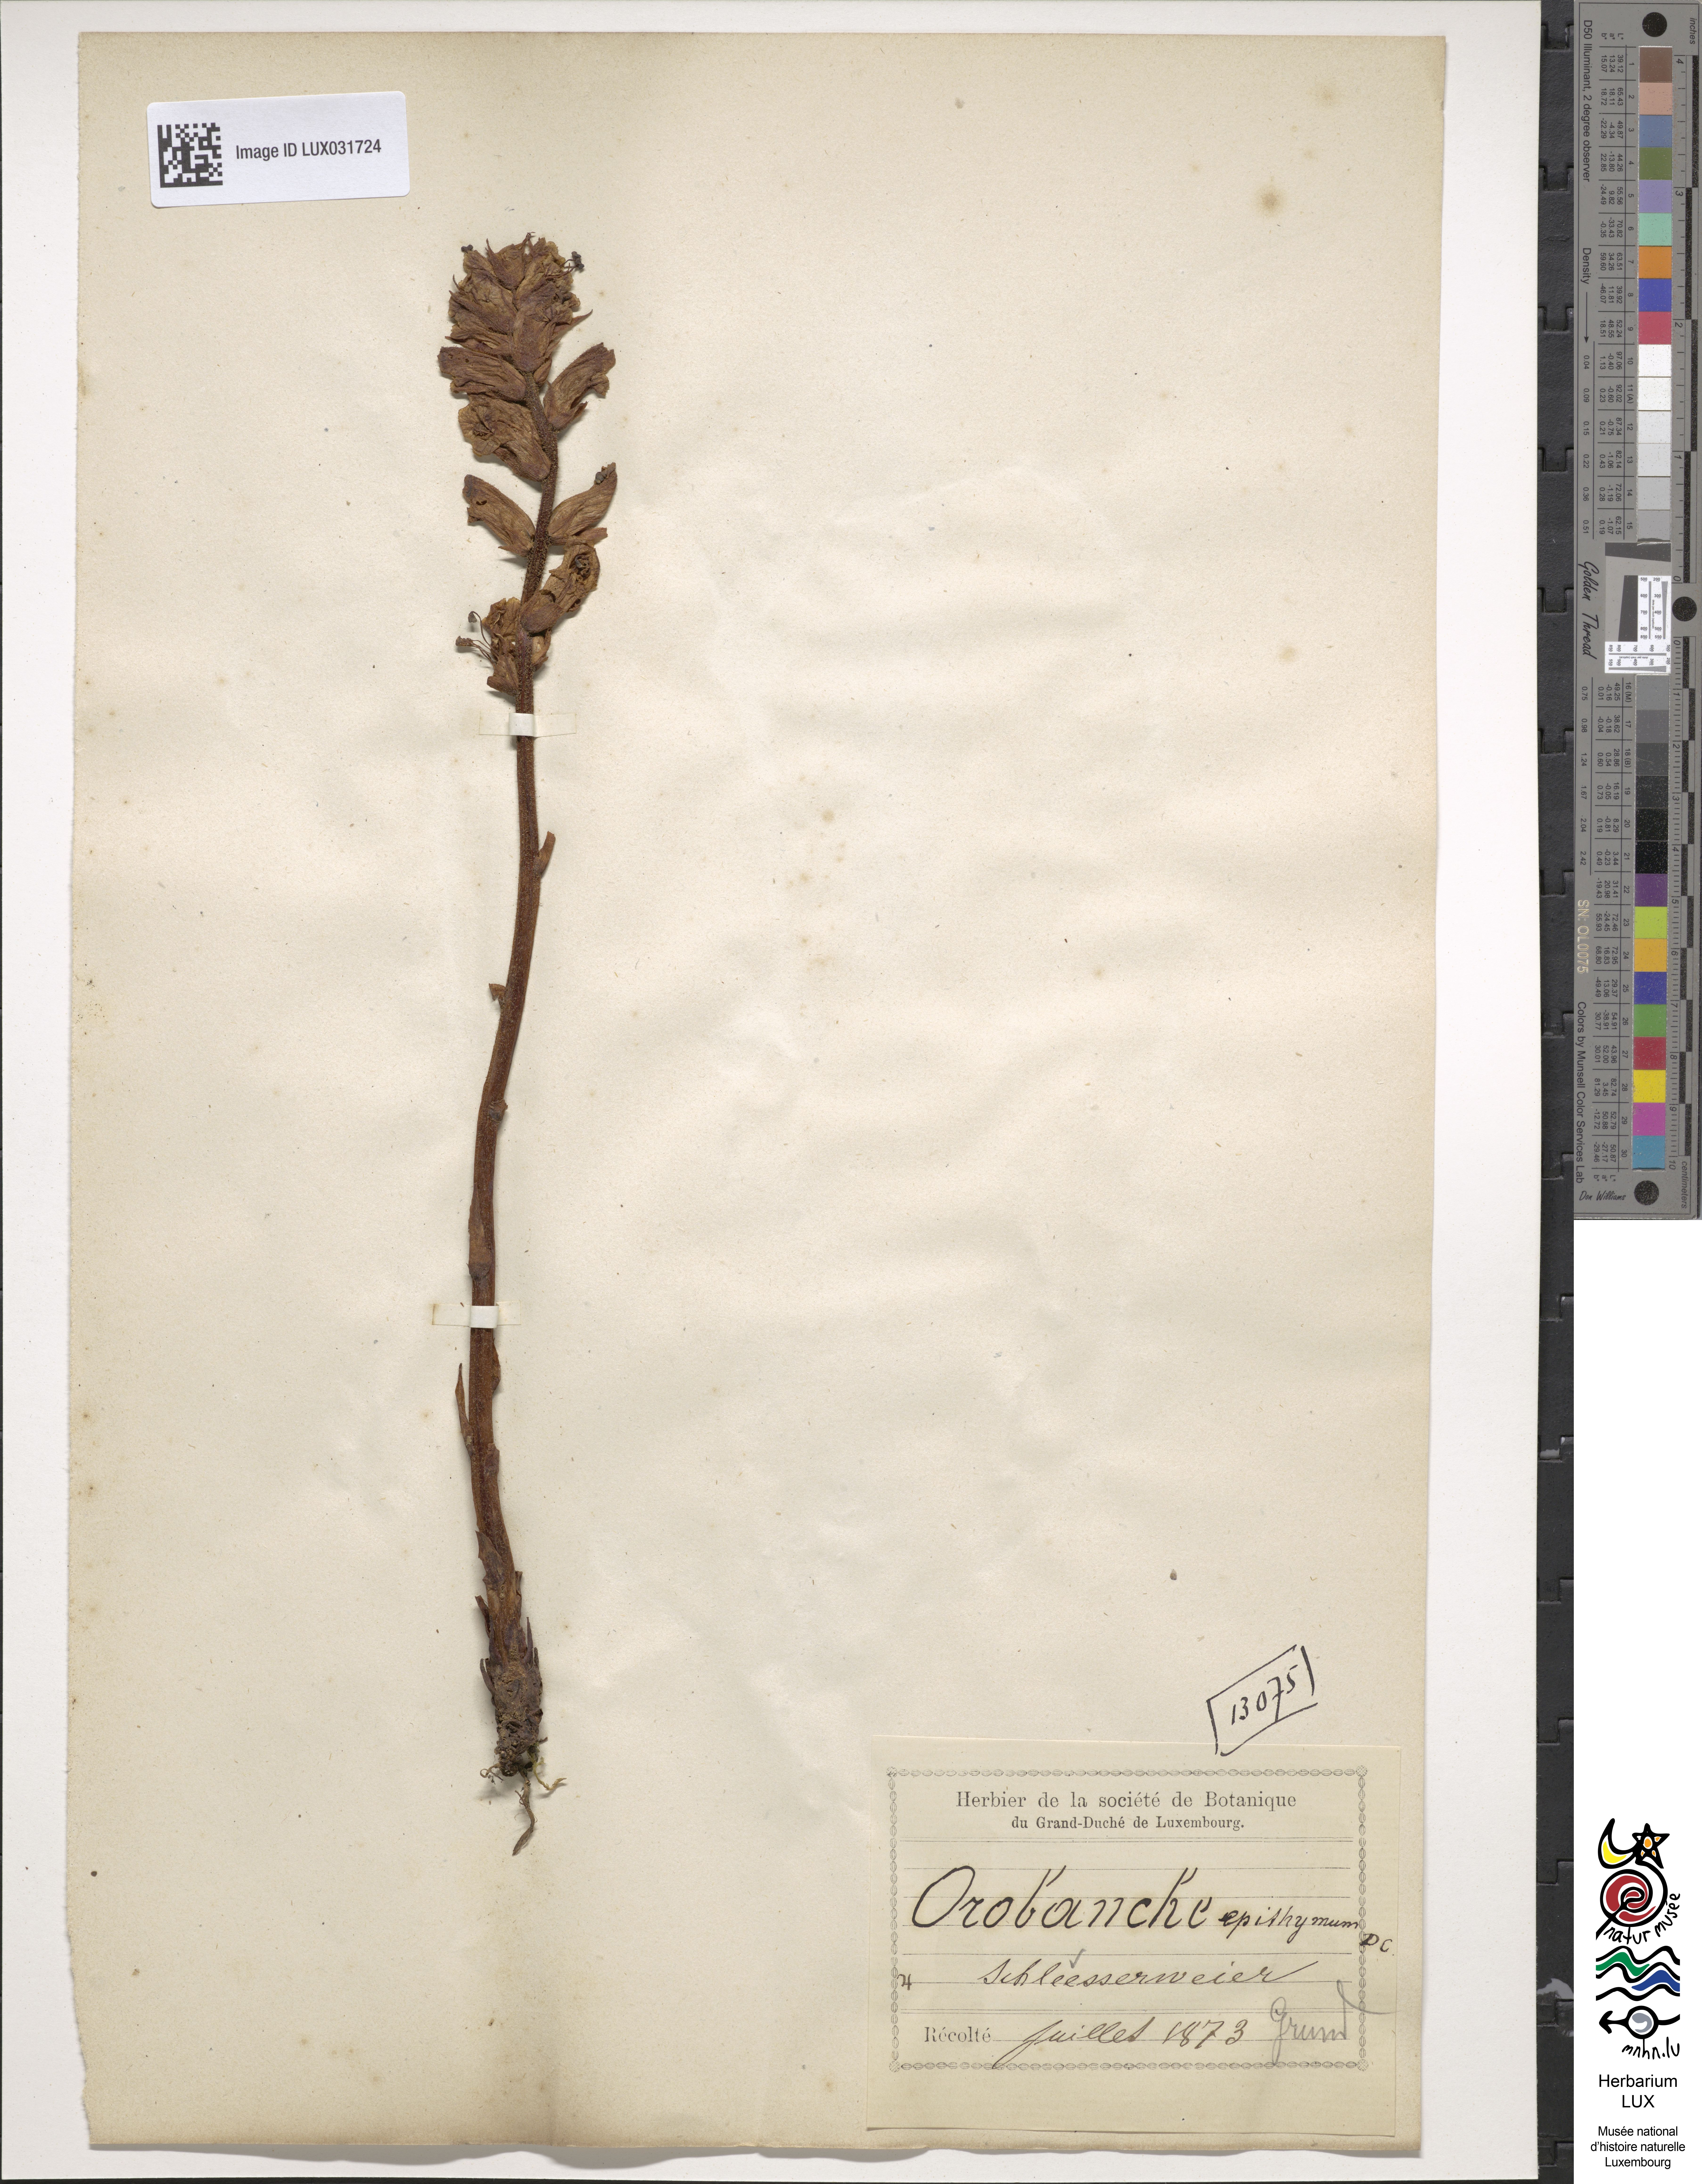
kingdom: Plantae
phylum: Tracheophyta
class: Magnoliopsida
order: Lamiales
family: Orobanchaceae
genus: Orobanche
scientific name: Orobanche alba
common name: Thyme broomrape
